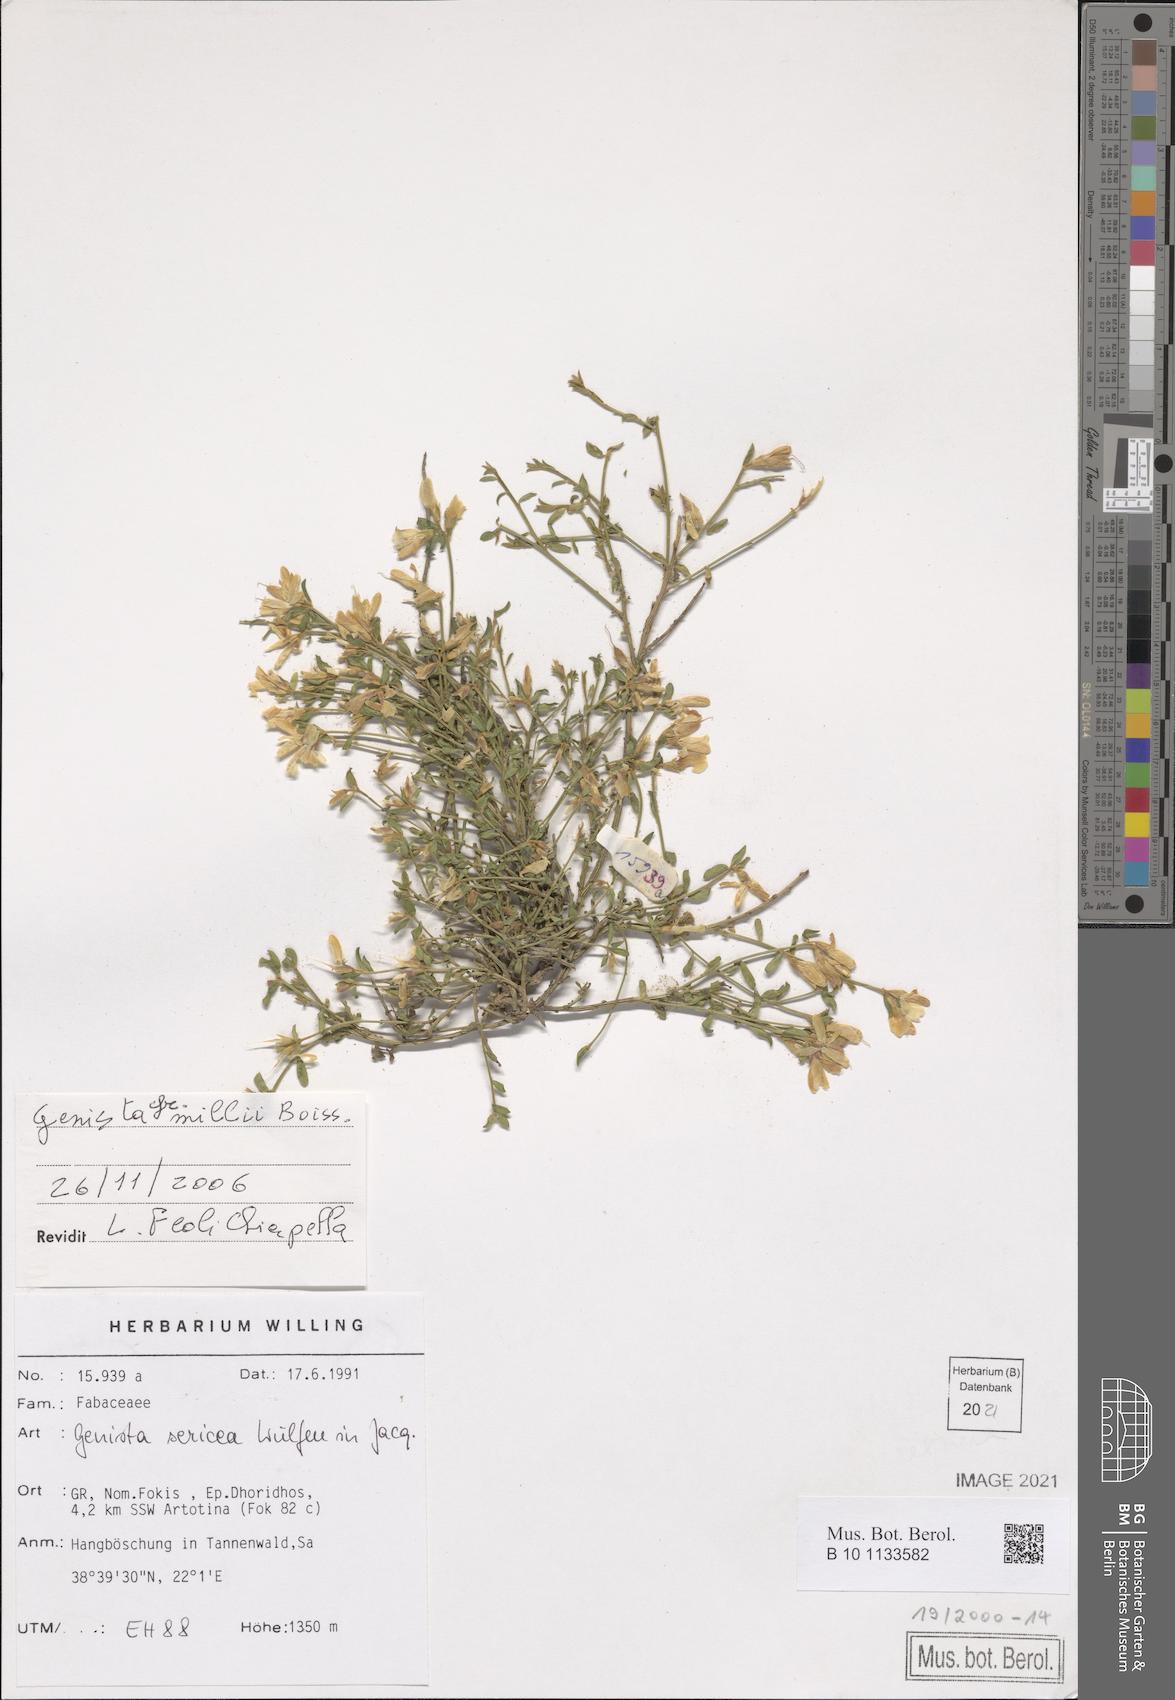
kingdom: Plantae
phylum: Tracheophyta
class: Magnoliopsida
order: Fabales
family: Fabaceae
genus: Genista
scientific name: Genista millii
